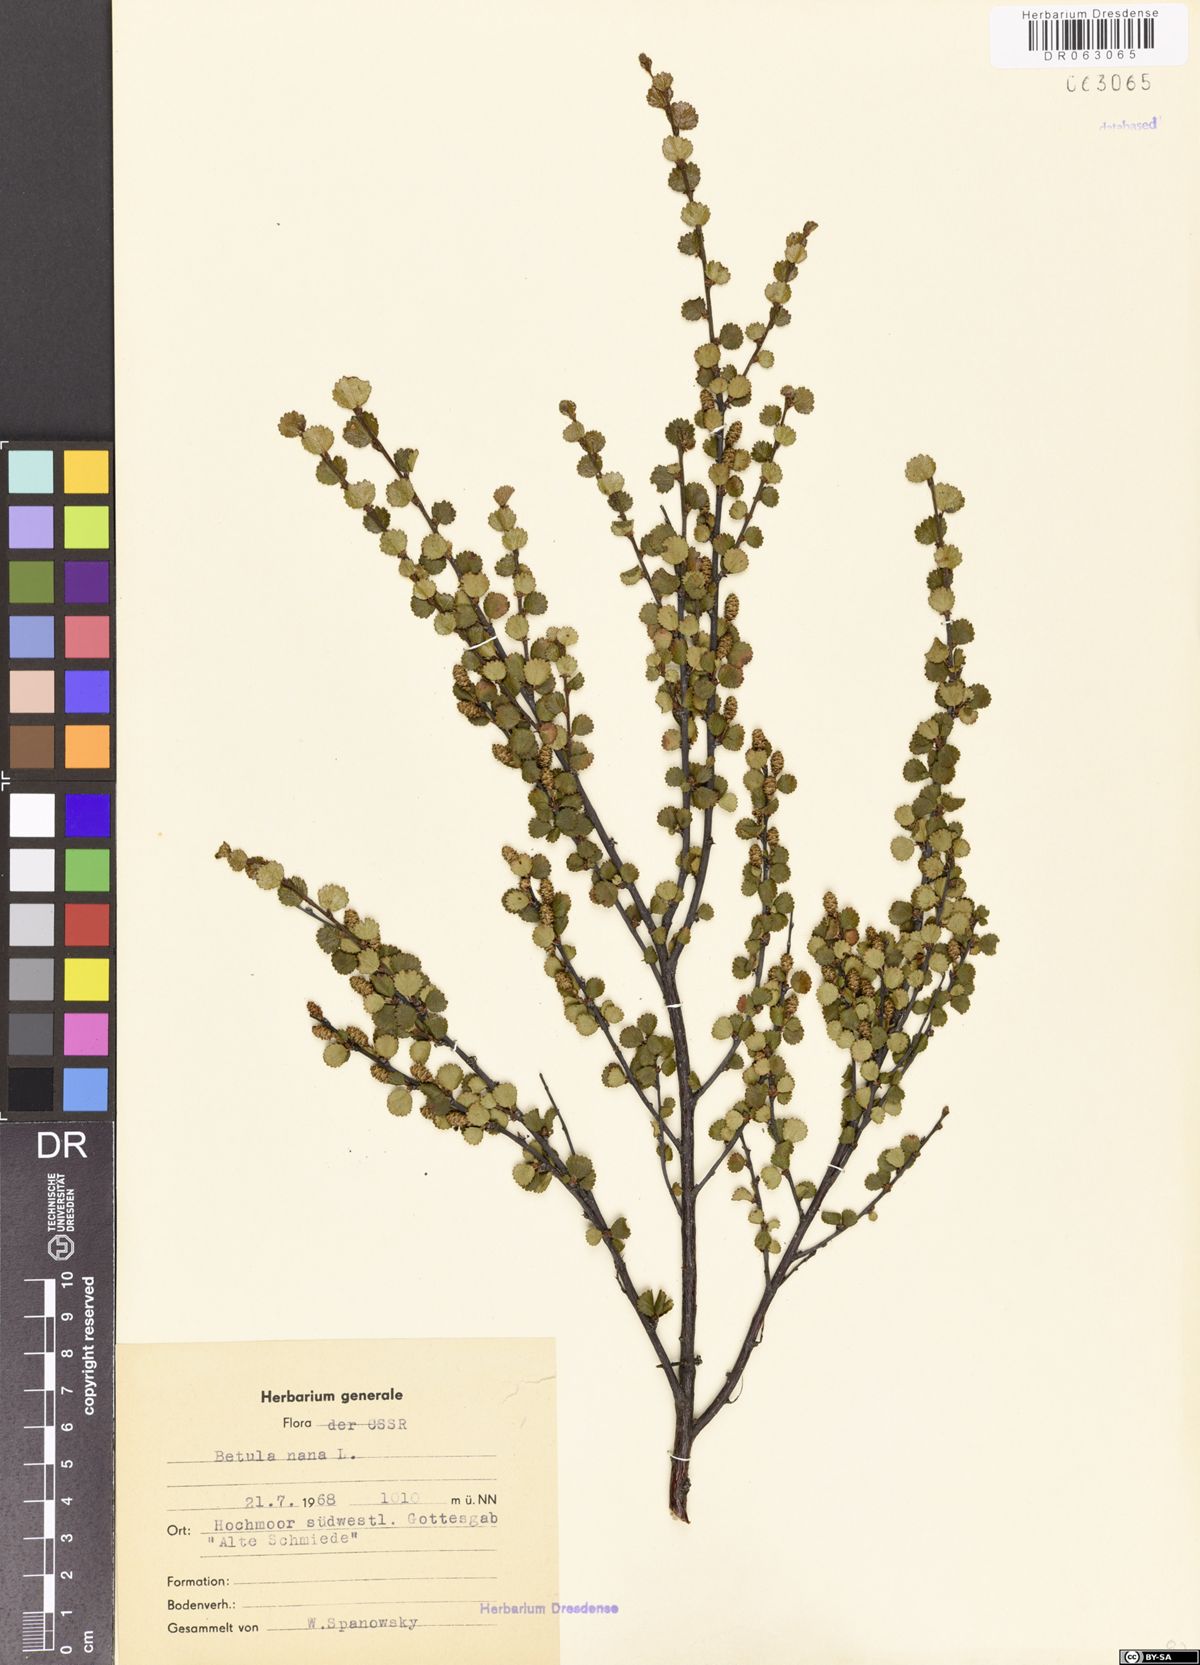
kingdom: Plantae
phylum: Tracheophyta
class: Magnoliopsida
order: Fagales
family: Betulaceae
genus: Betula
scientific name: Betula nana
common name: Arctic dwarf birch
